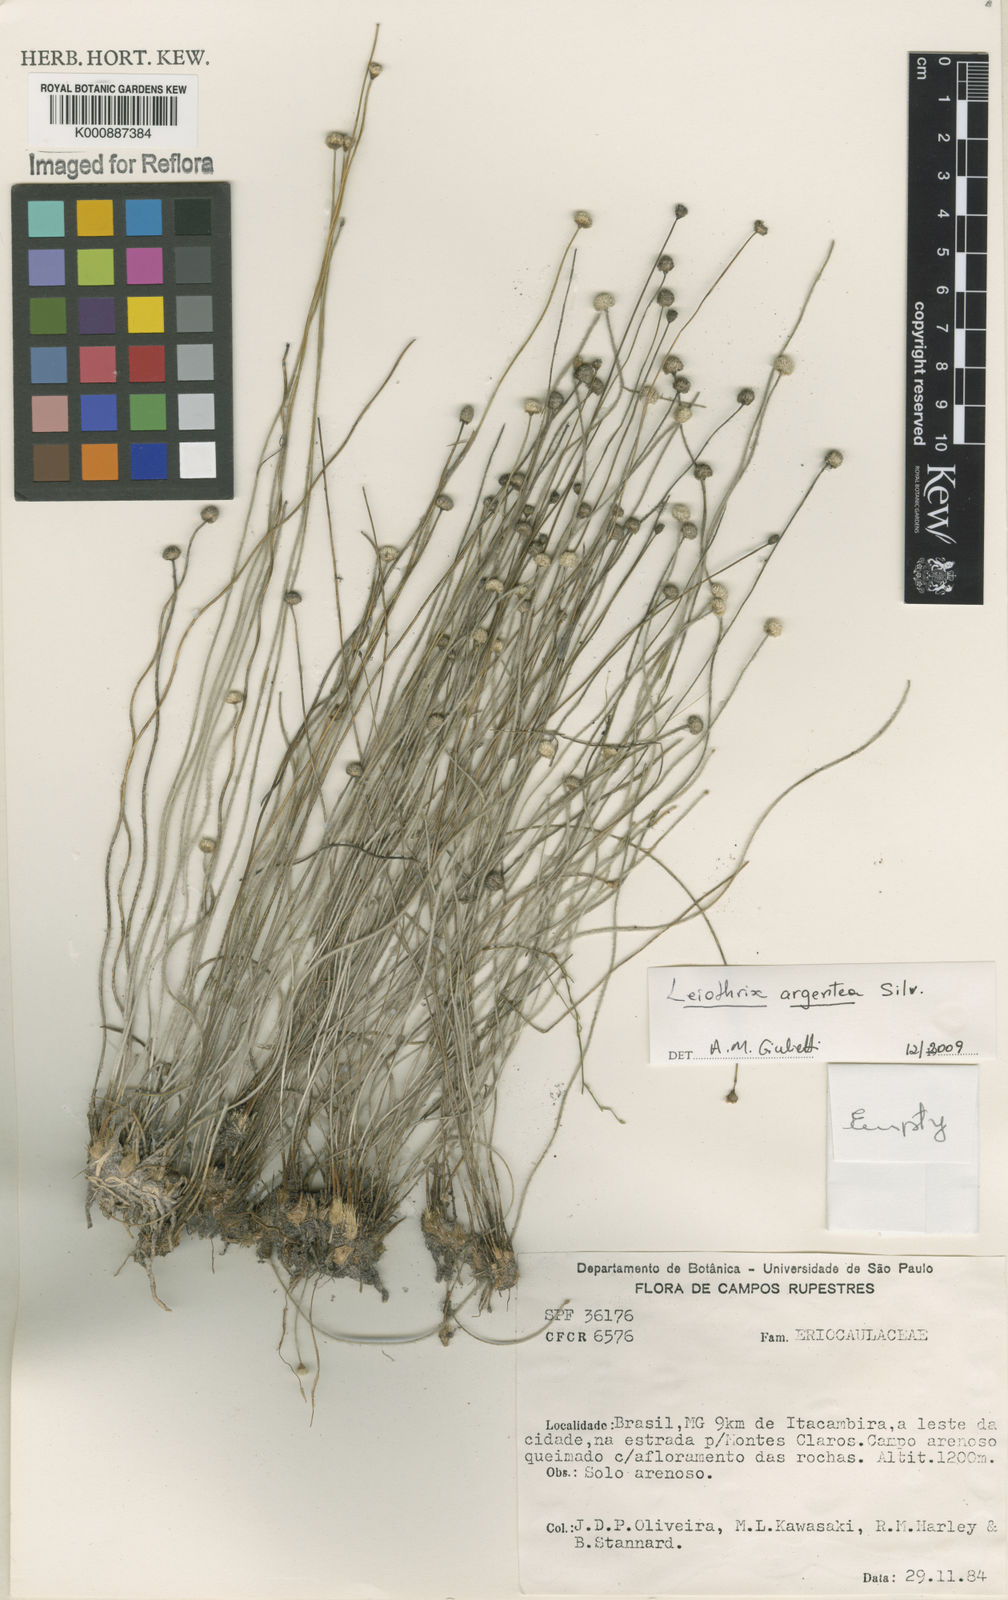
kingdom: Plantae
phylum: Tracheophyta
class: Liliopsida
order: Poales
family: Eriocaulaceae
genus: Leiothrix
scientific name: Leiothrix argentea
